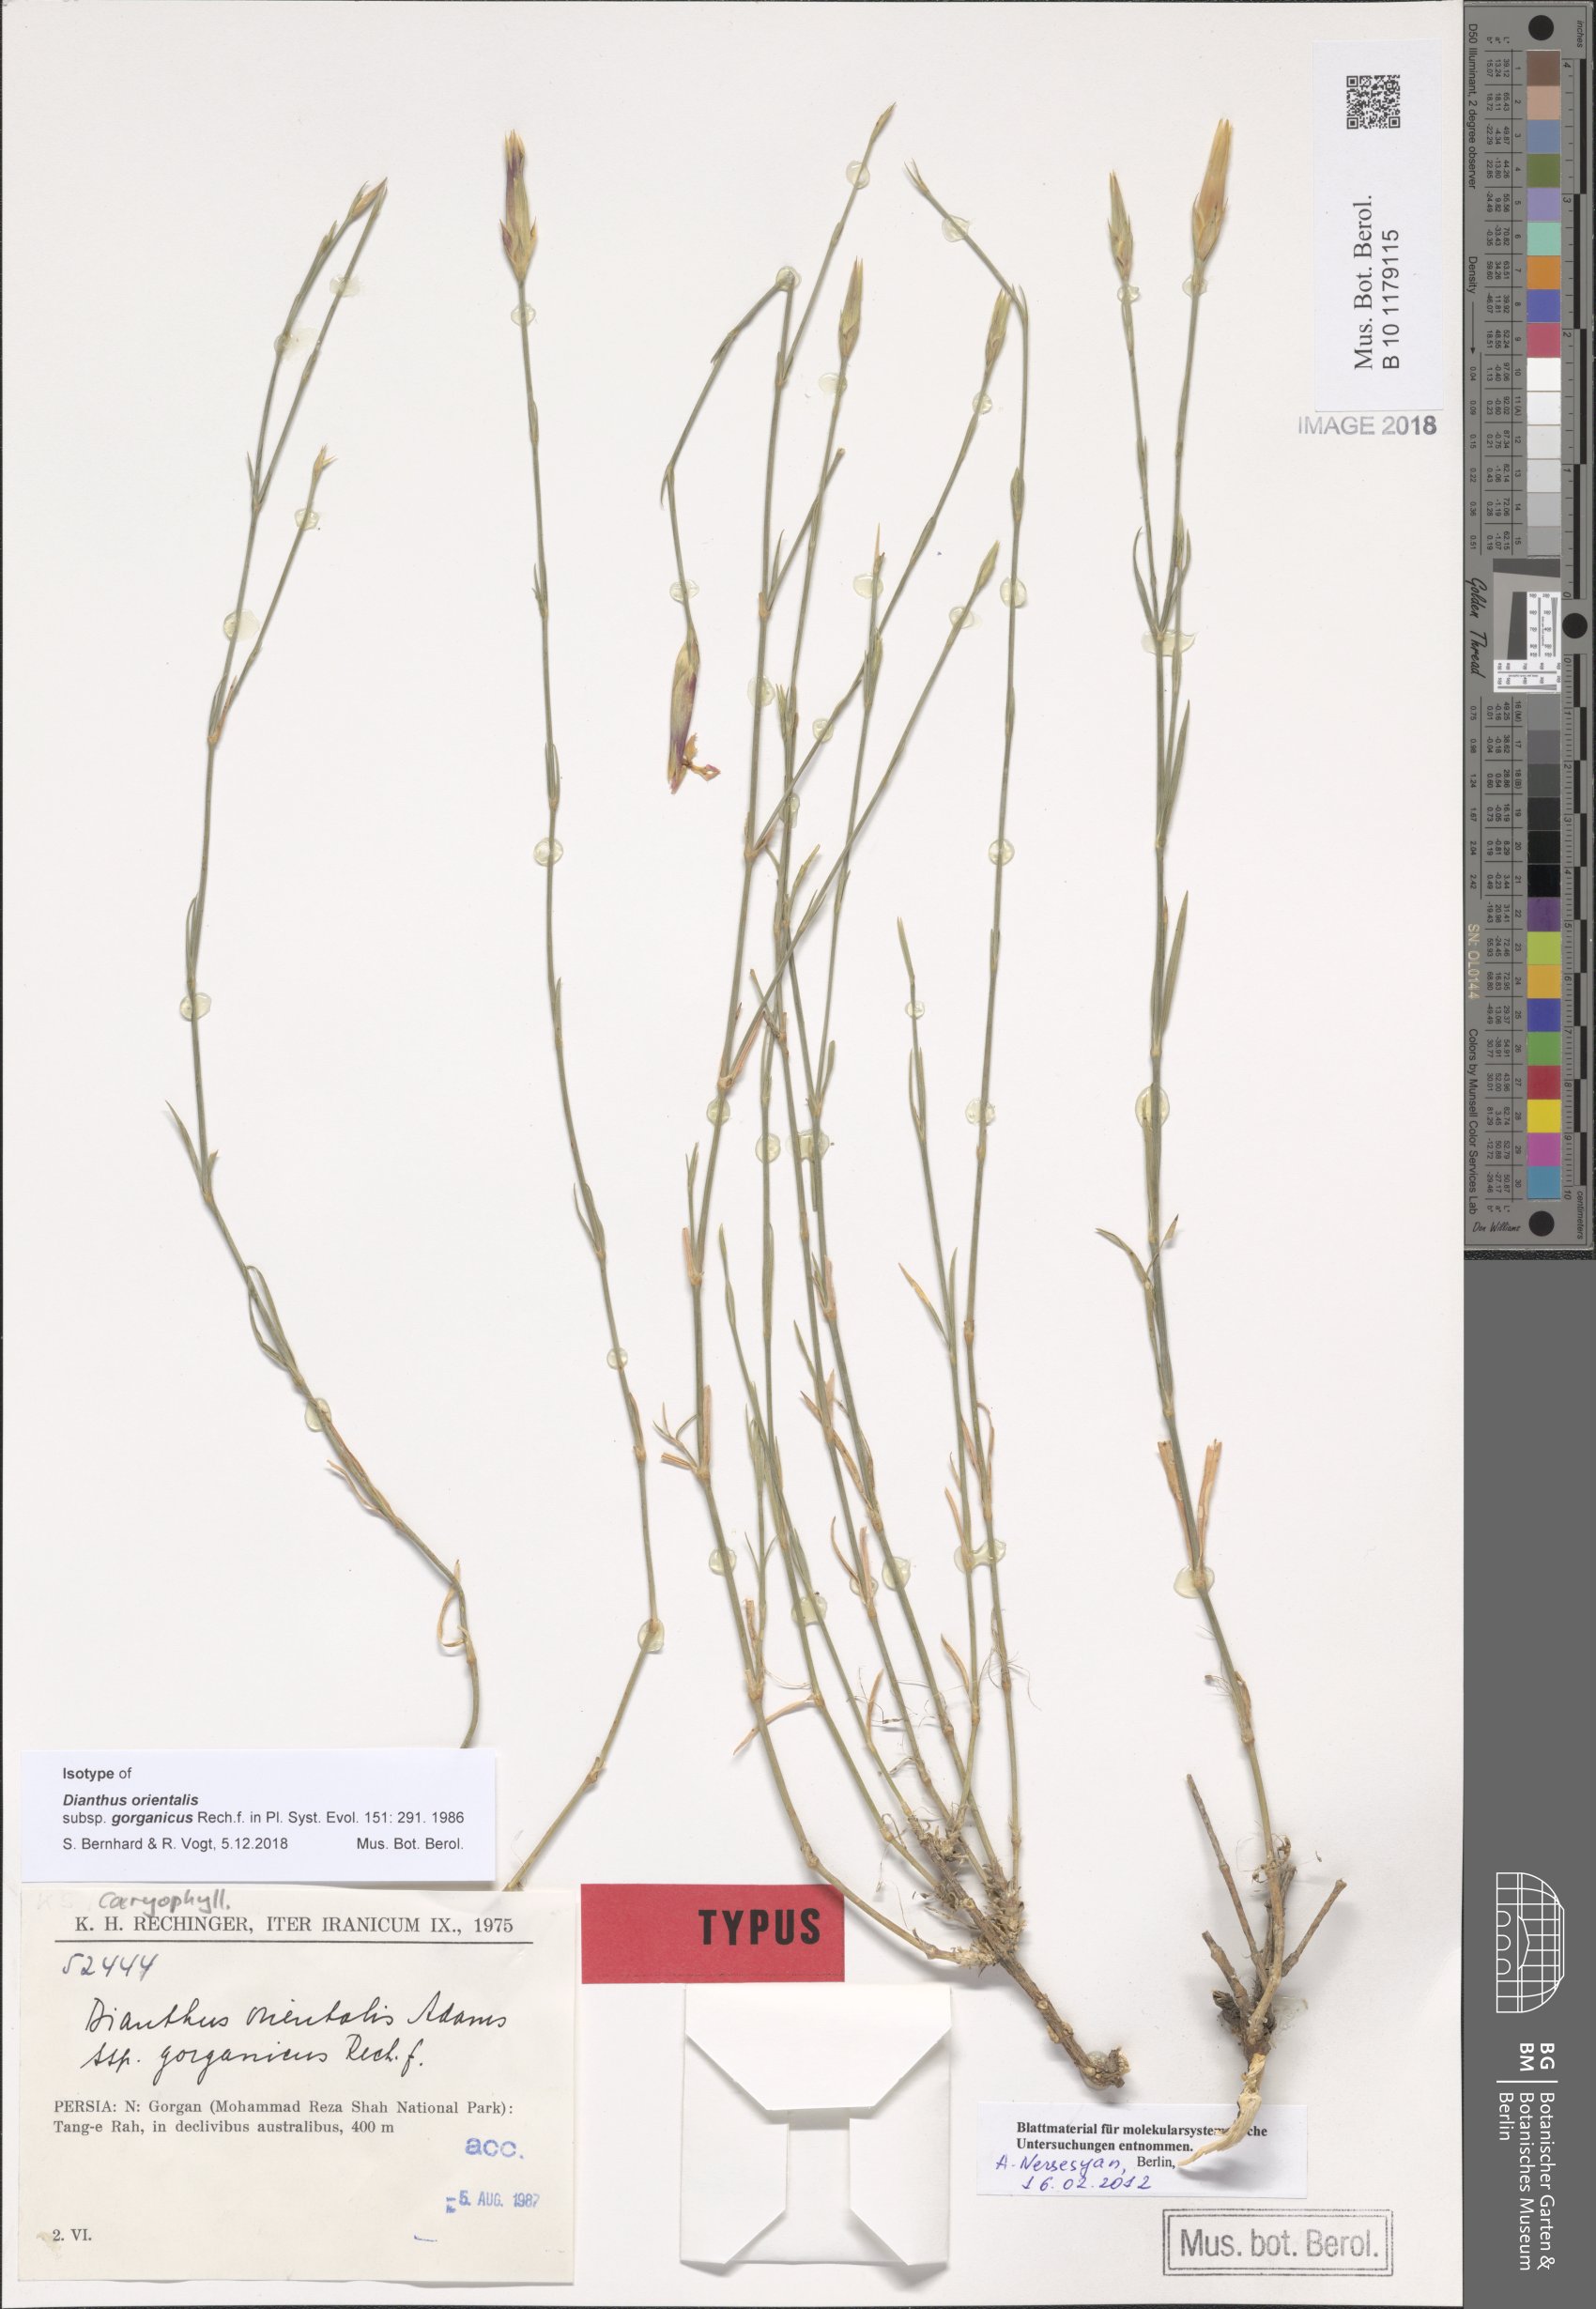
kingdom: Plantae
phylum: Tracheophyta
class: Magnoliopsida
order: Caryophyllales
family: Caryophyllaceae
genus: Dianthus
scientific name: Dianthus orientalis
